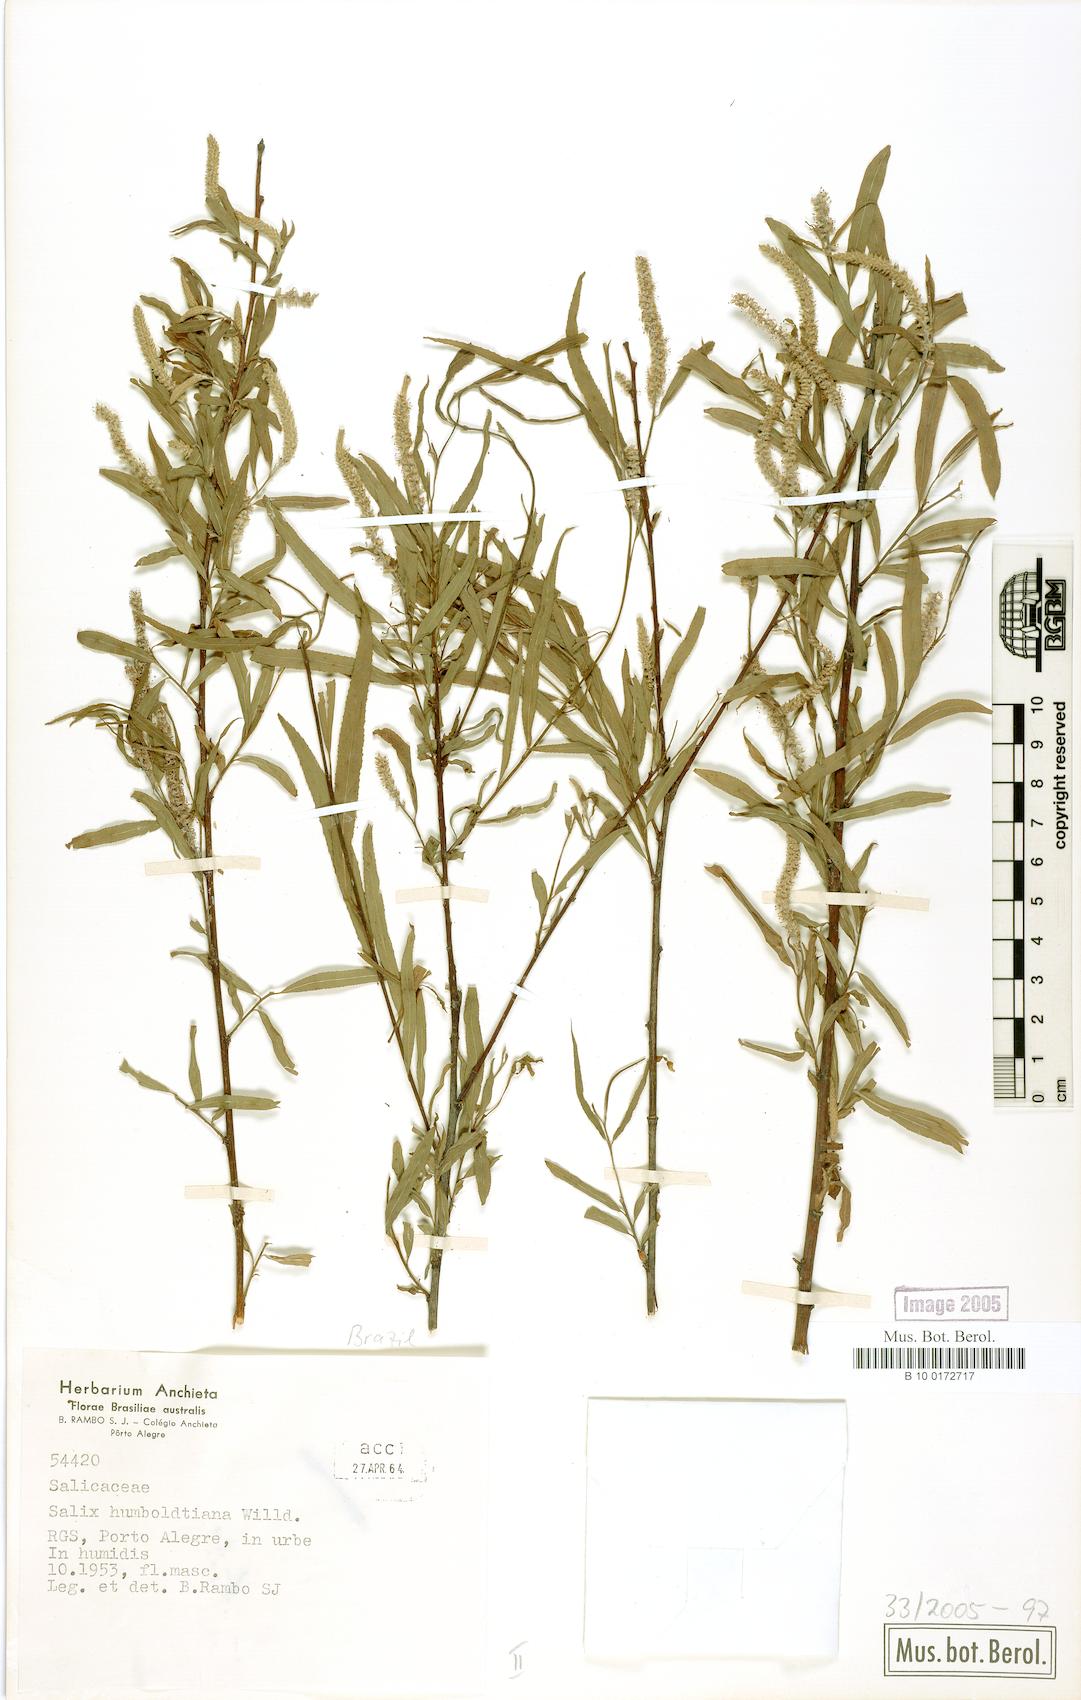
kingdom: Plantae
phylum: Tracheophyta
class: Magnoliopsida
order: Malpighiales
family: Salicaceae
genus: Salix
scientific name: Salix humboldtiana
